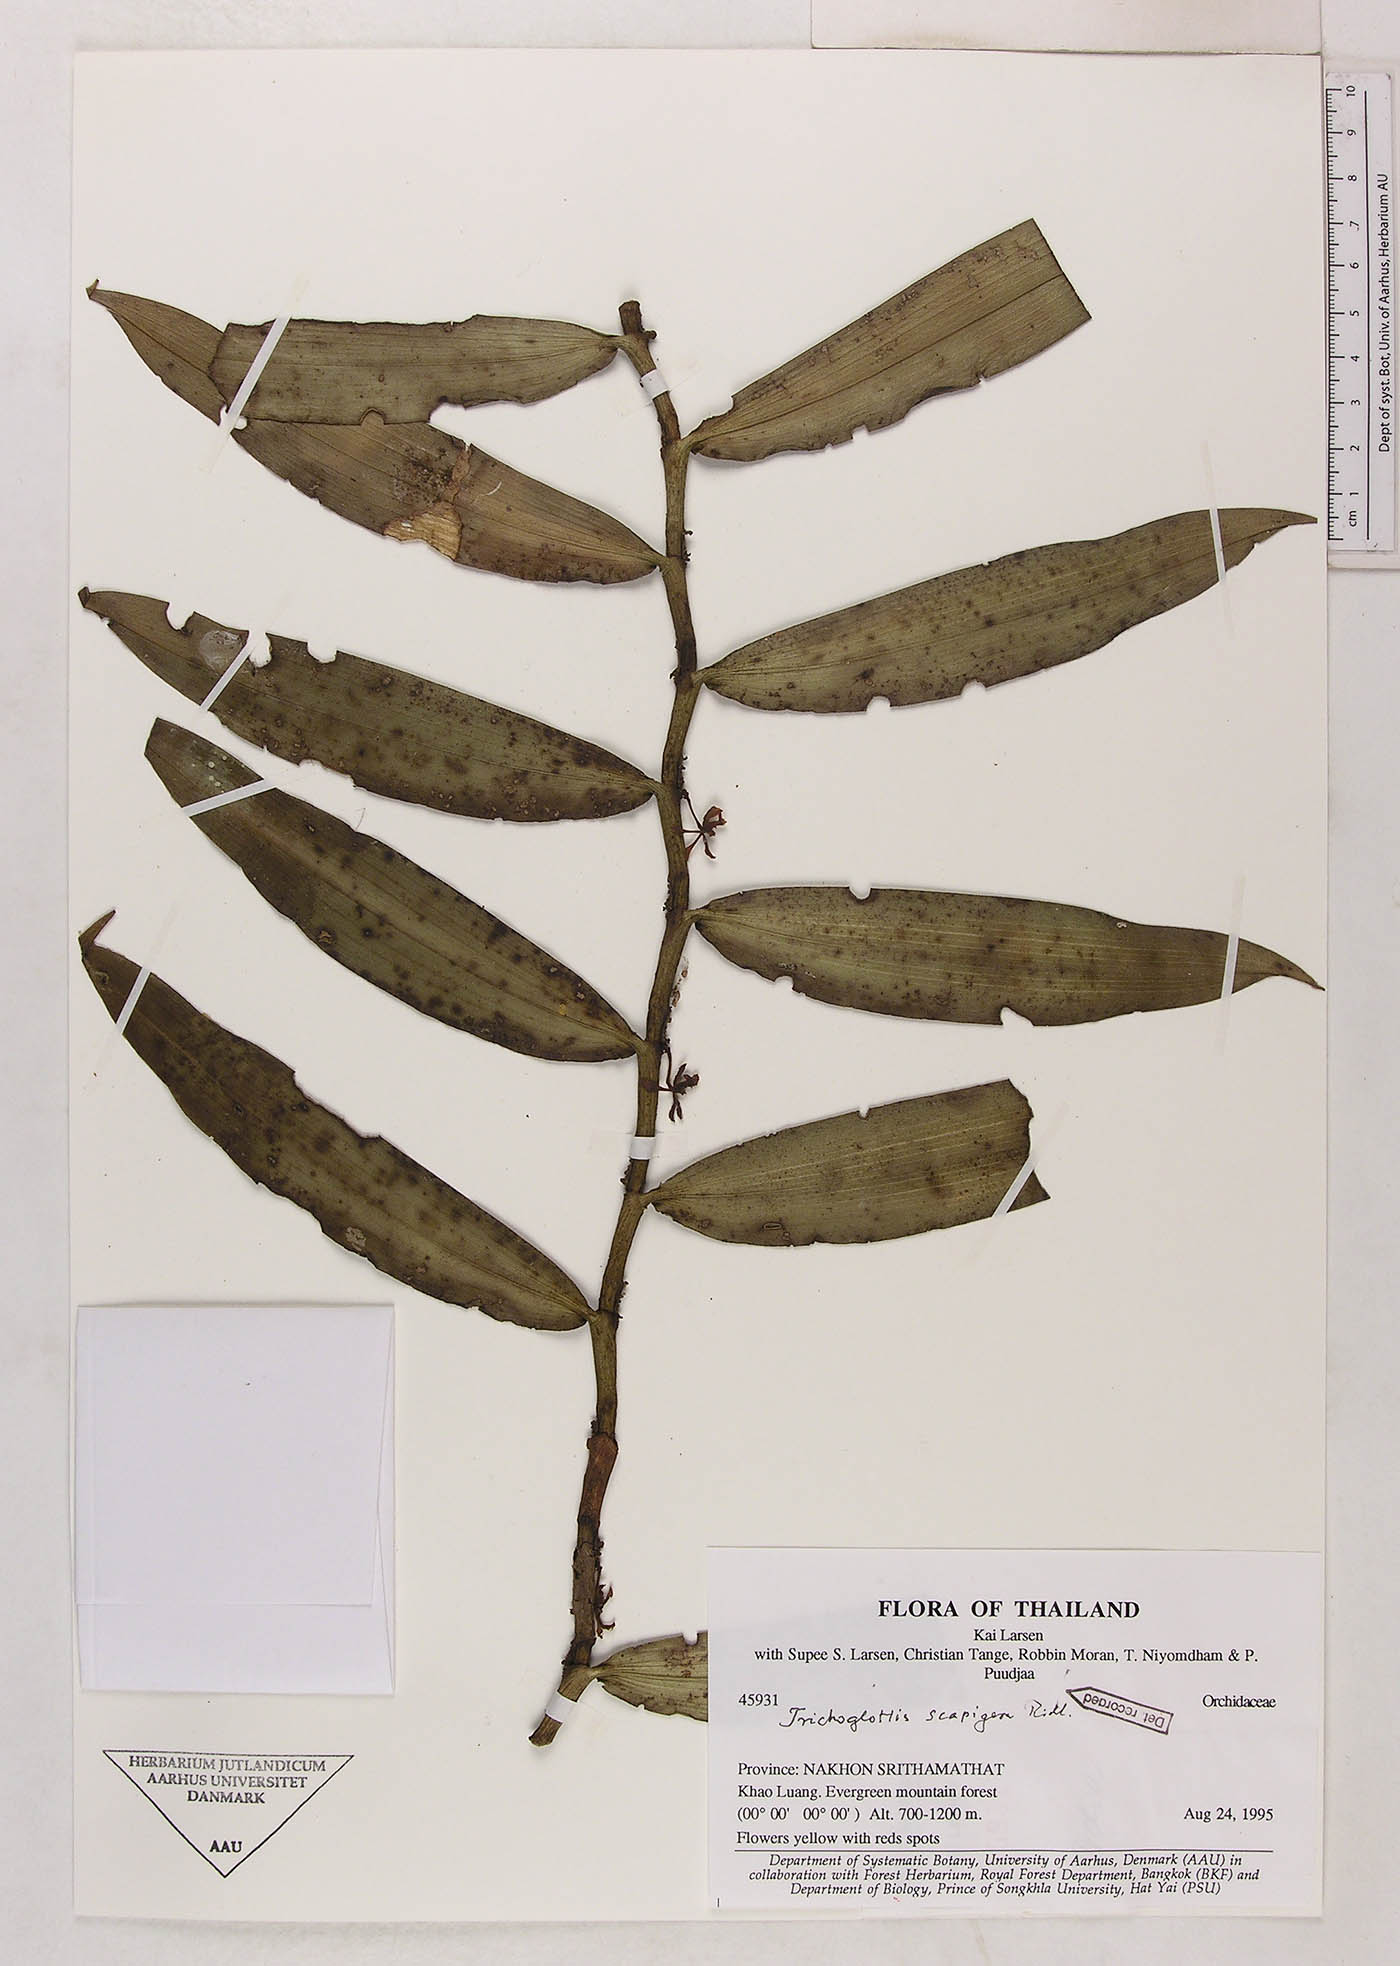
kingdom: Plantae
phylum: Tracheophyta
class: Liliopsida
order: Asparagales
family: Orchidaceae
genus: Trichoglottis
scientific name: Trichoglottis scaphigera
